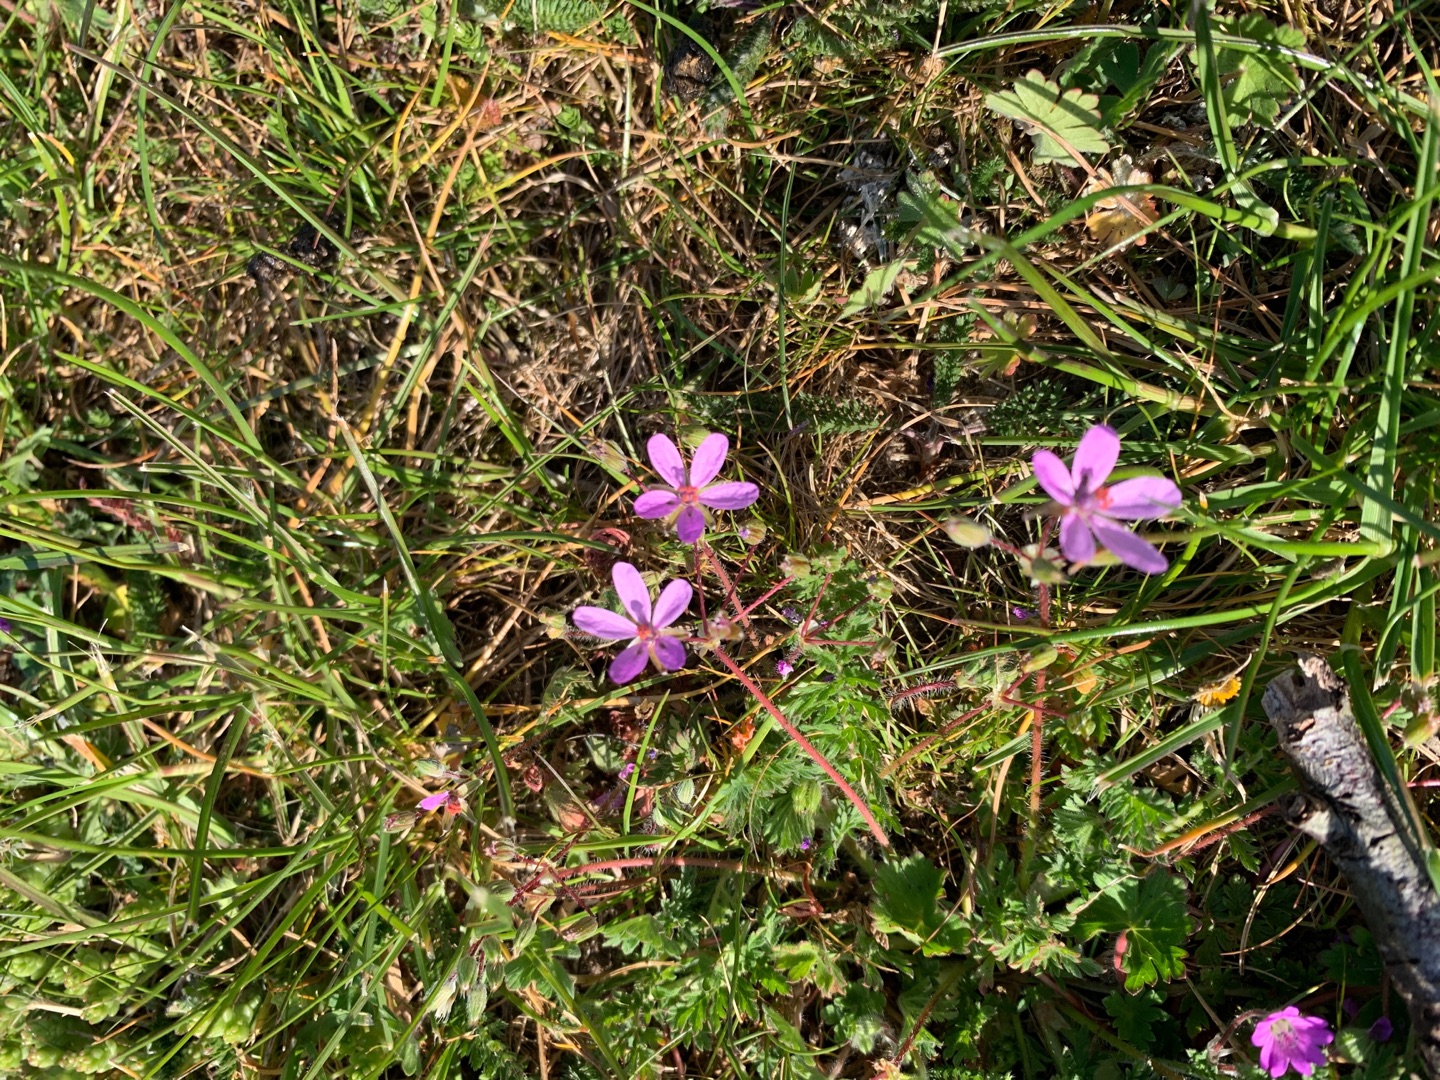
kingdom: Plantae
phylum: Tracheophyta
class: Magnoliopsida
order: Geraniales
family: Geraniaceae
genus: Erodium
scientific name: Erodium cicutarium
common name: Hejrenæb
